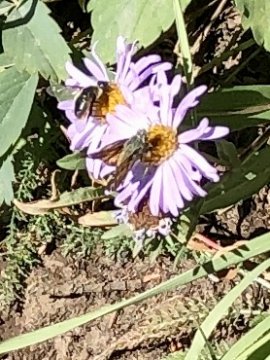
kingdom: Animalia
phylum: Arthropoda
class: Insecta
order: Lepidoptera
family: Hesperiidae
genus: Hesperia
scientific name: Hesperia
